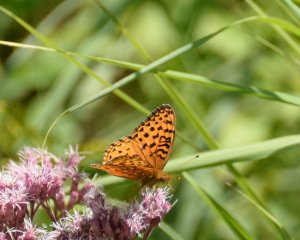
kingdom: Animalia
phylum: Arthropoda
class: Insecta
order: Lepidoptera
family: Nymphalidae
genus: Speyeria
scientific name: Speyeria aphrodite
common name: Aphrodite Fritillary
